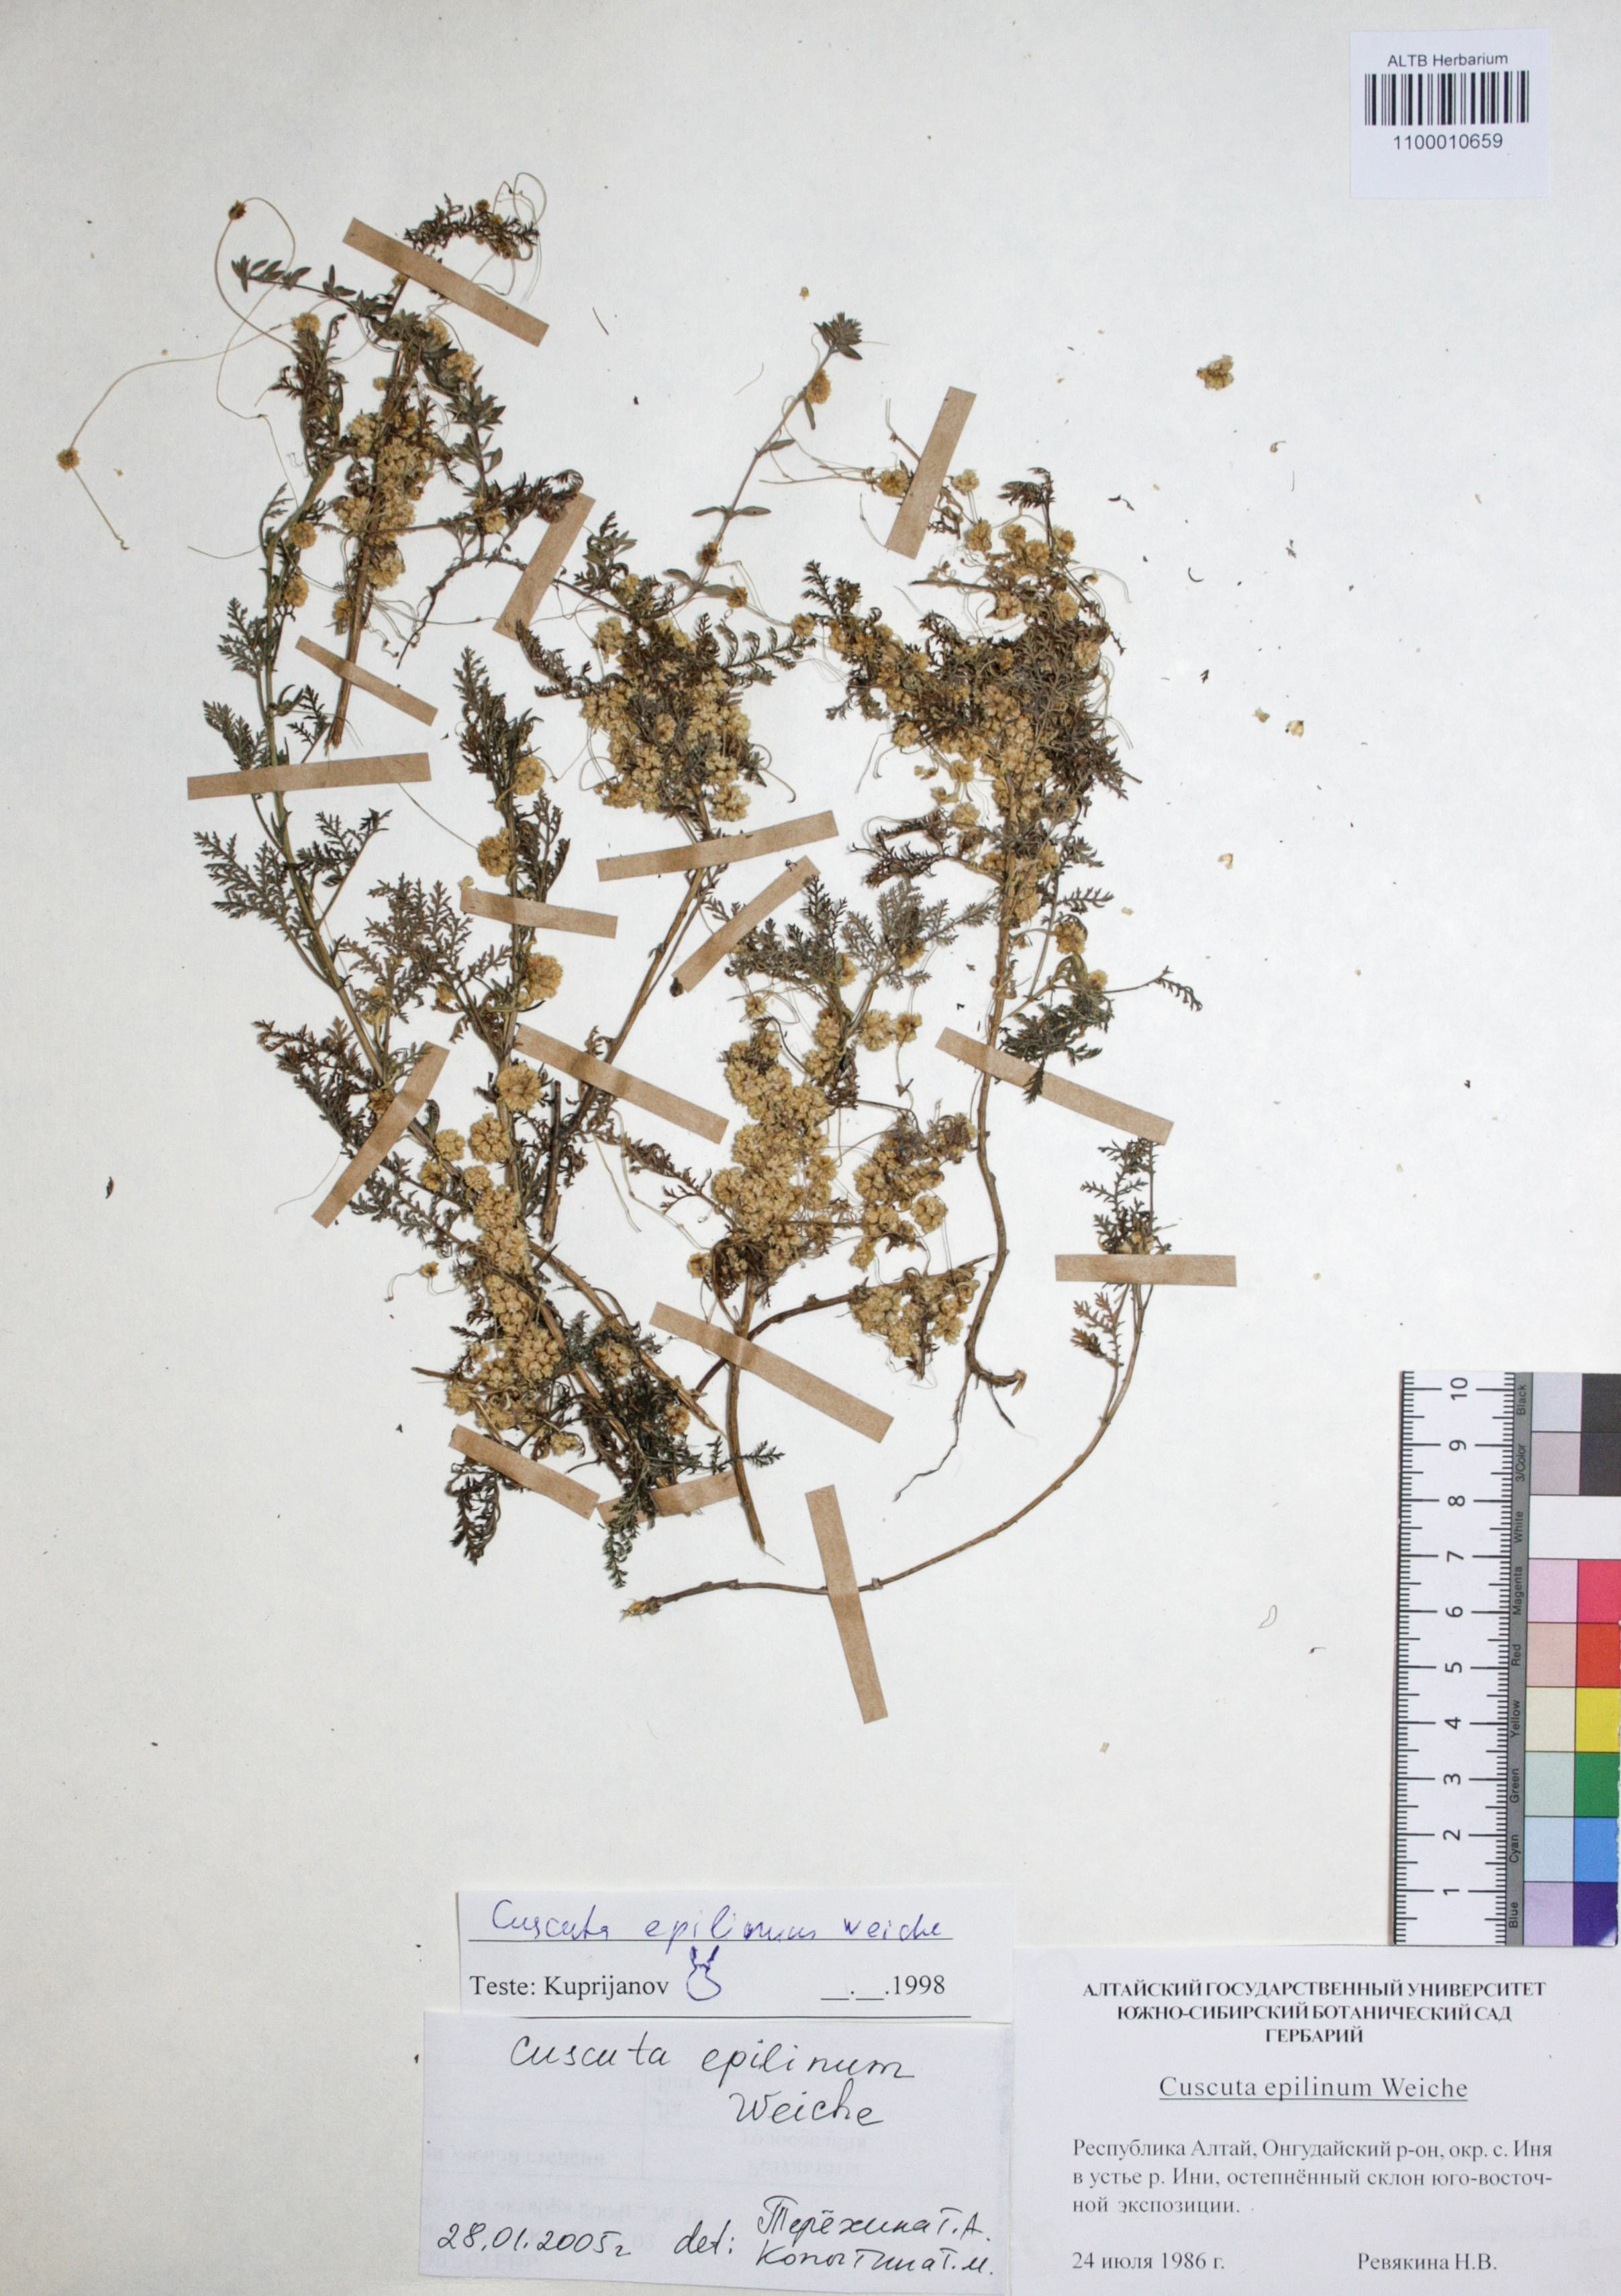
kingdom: Plantae
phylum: Tracheophyta
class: Magnoliopsida
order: Solanales
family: Convolvulaceae
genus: Cuscuta
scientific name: Cuscuta epilinum
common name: Flax dodder
